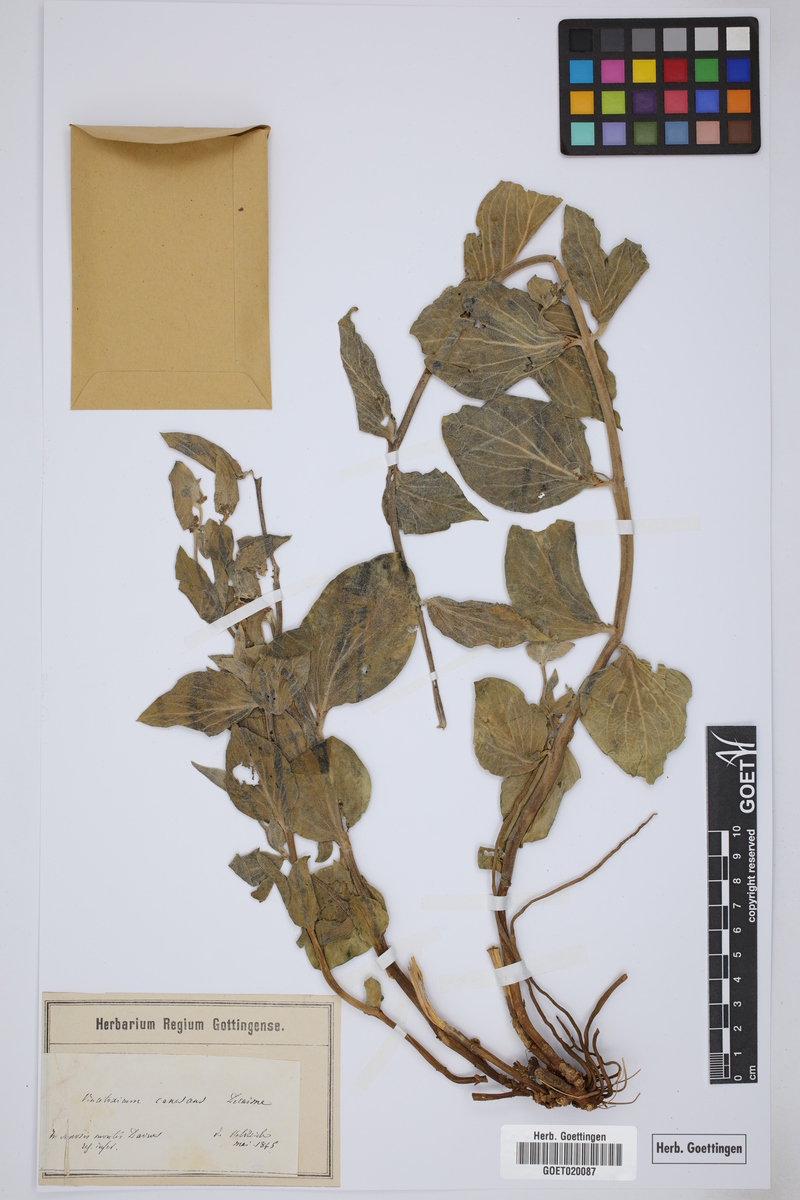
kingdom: Plantae
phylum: Tracheophyta
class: Magnoliopsida
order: Gentianales
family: Apocynaceae
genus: Vincetoxicum
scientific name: Vincetoxicum canescens
